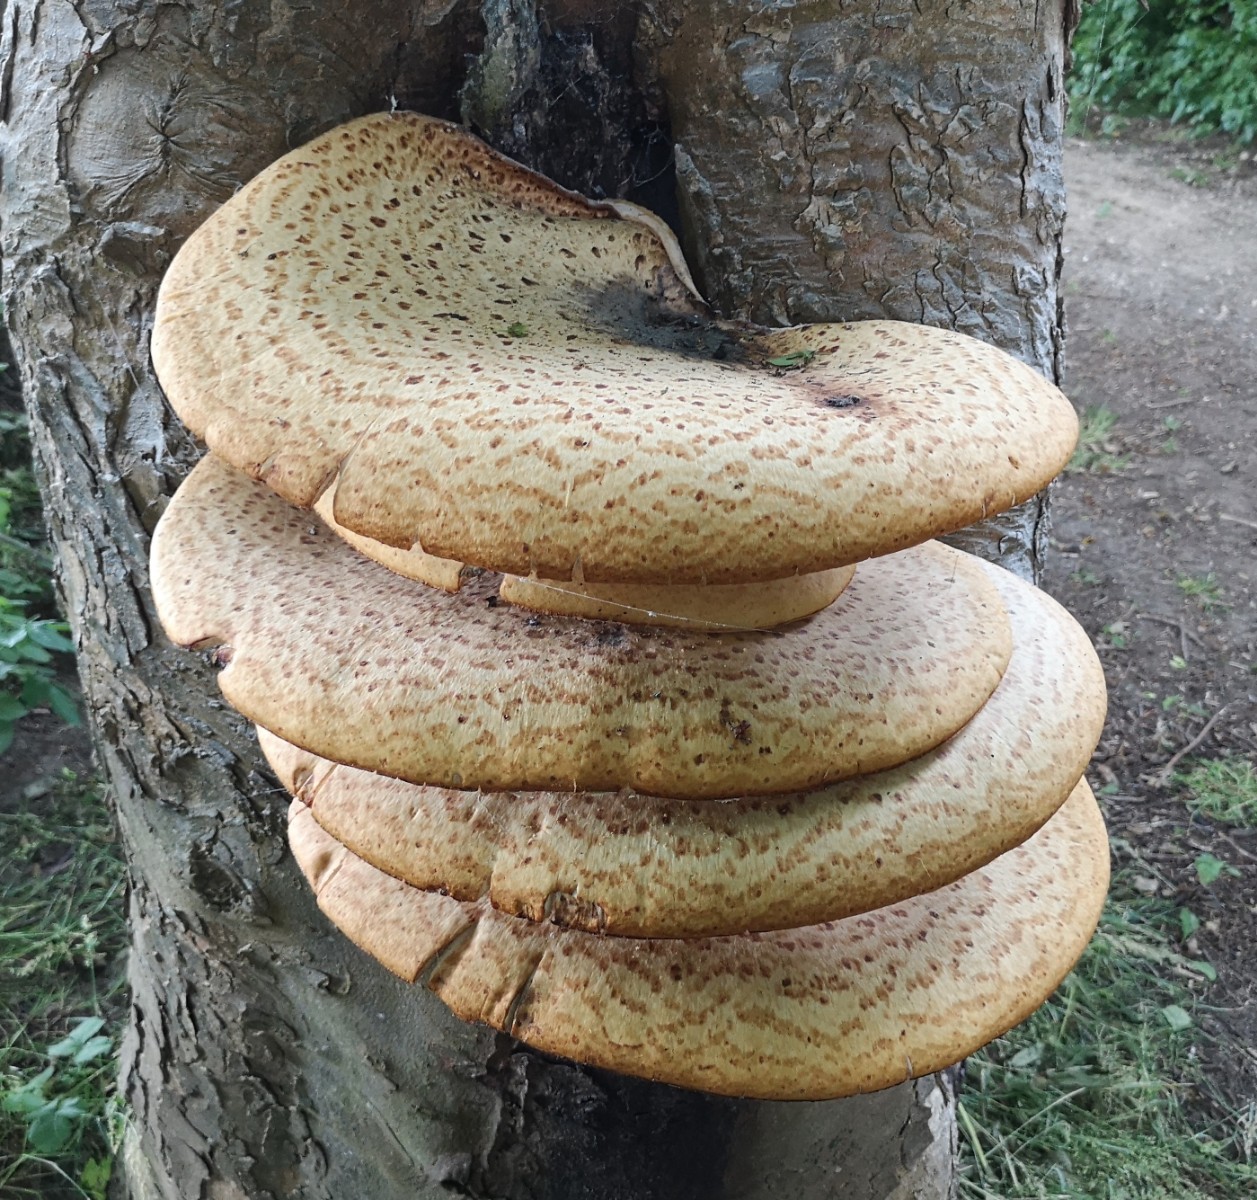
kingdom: Fungi
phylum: Basidiomycota
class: Agaricomycetes
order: Polyporales
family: Polyporaceae
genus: Cerioporus
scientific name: Cerioporus squamosus
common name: skællet stilkporesvamp
